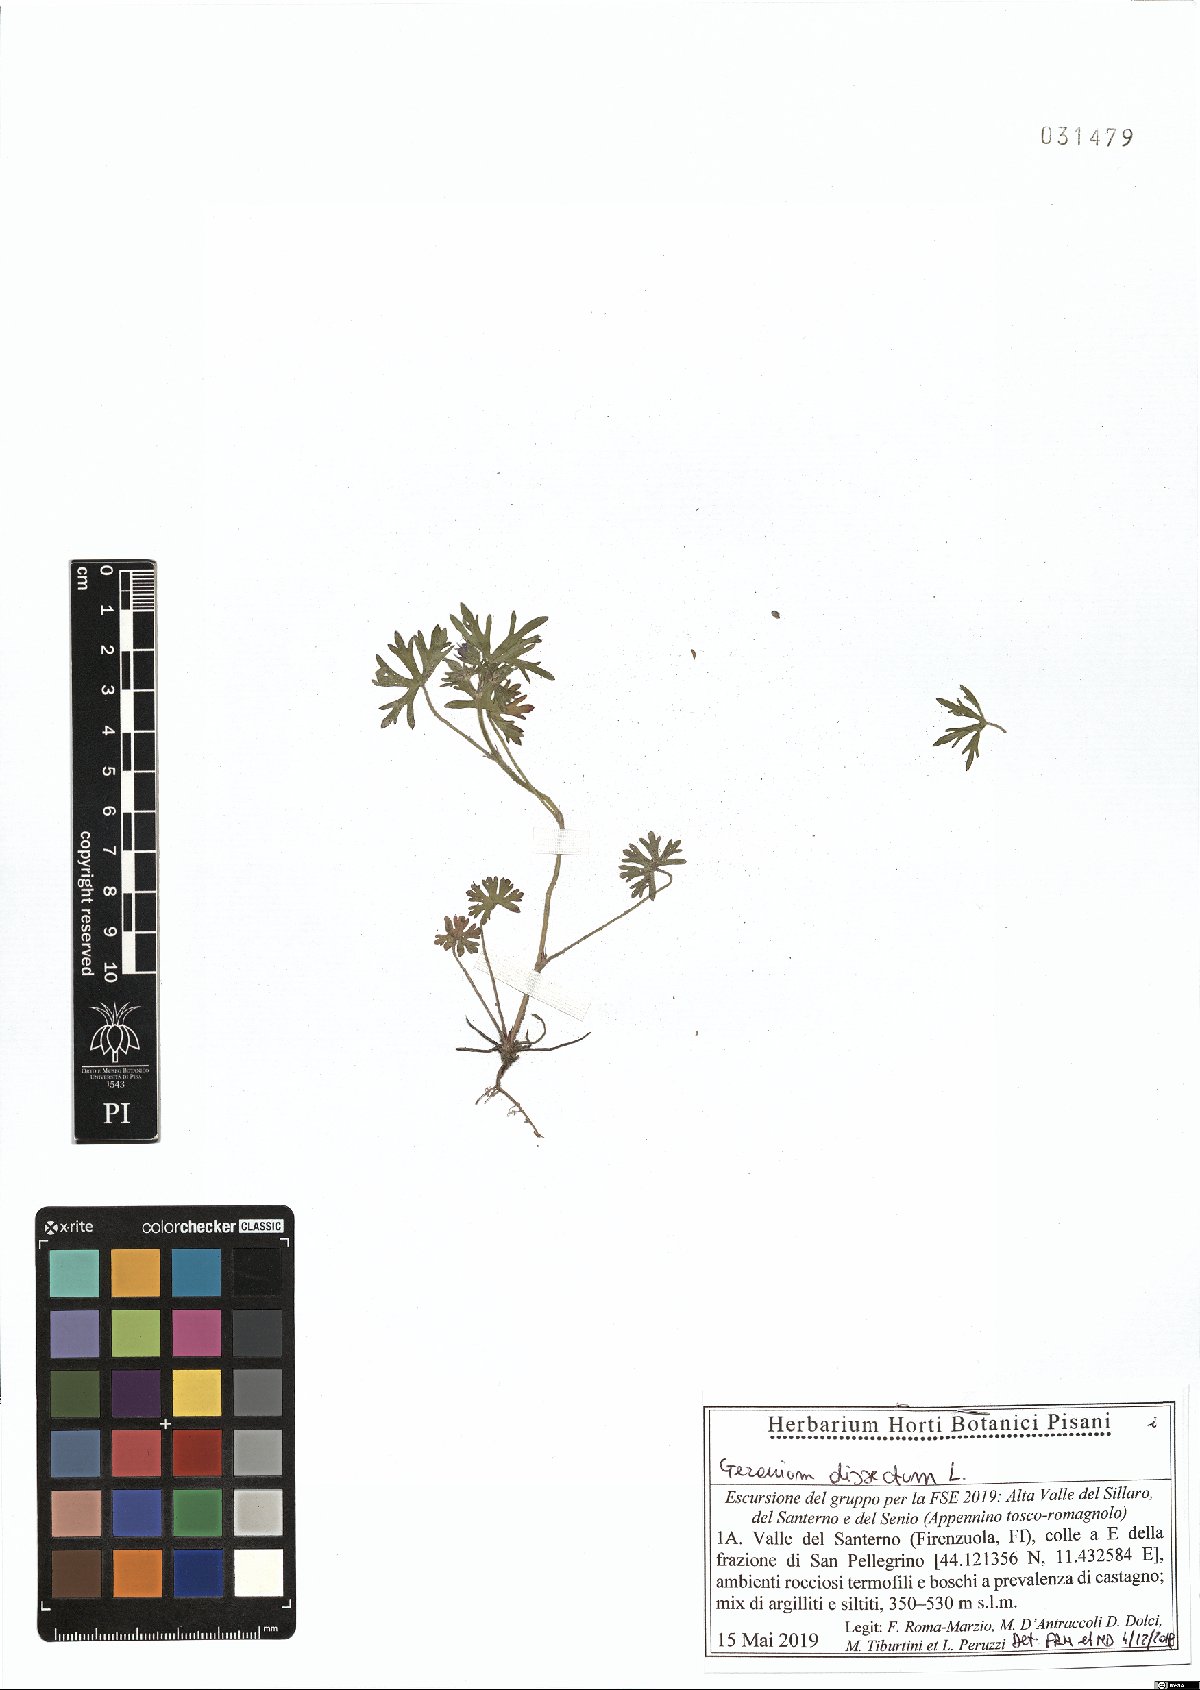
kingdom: Plantae
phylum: Tracheophyta
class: Magnoliopsida
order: Geraniales
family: Geraniaceae
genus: Geranium
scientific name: Geranium dissectum
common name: Cut-leaved crane's-bill
